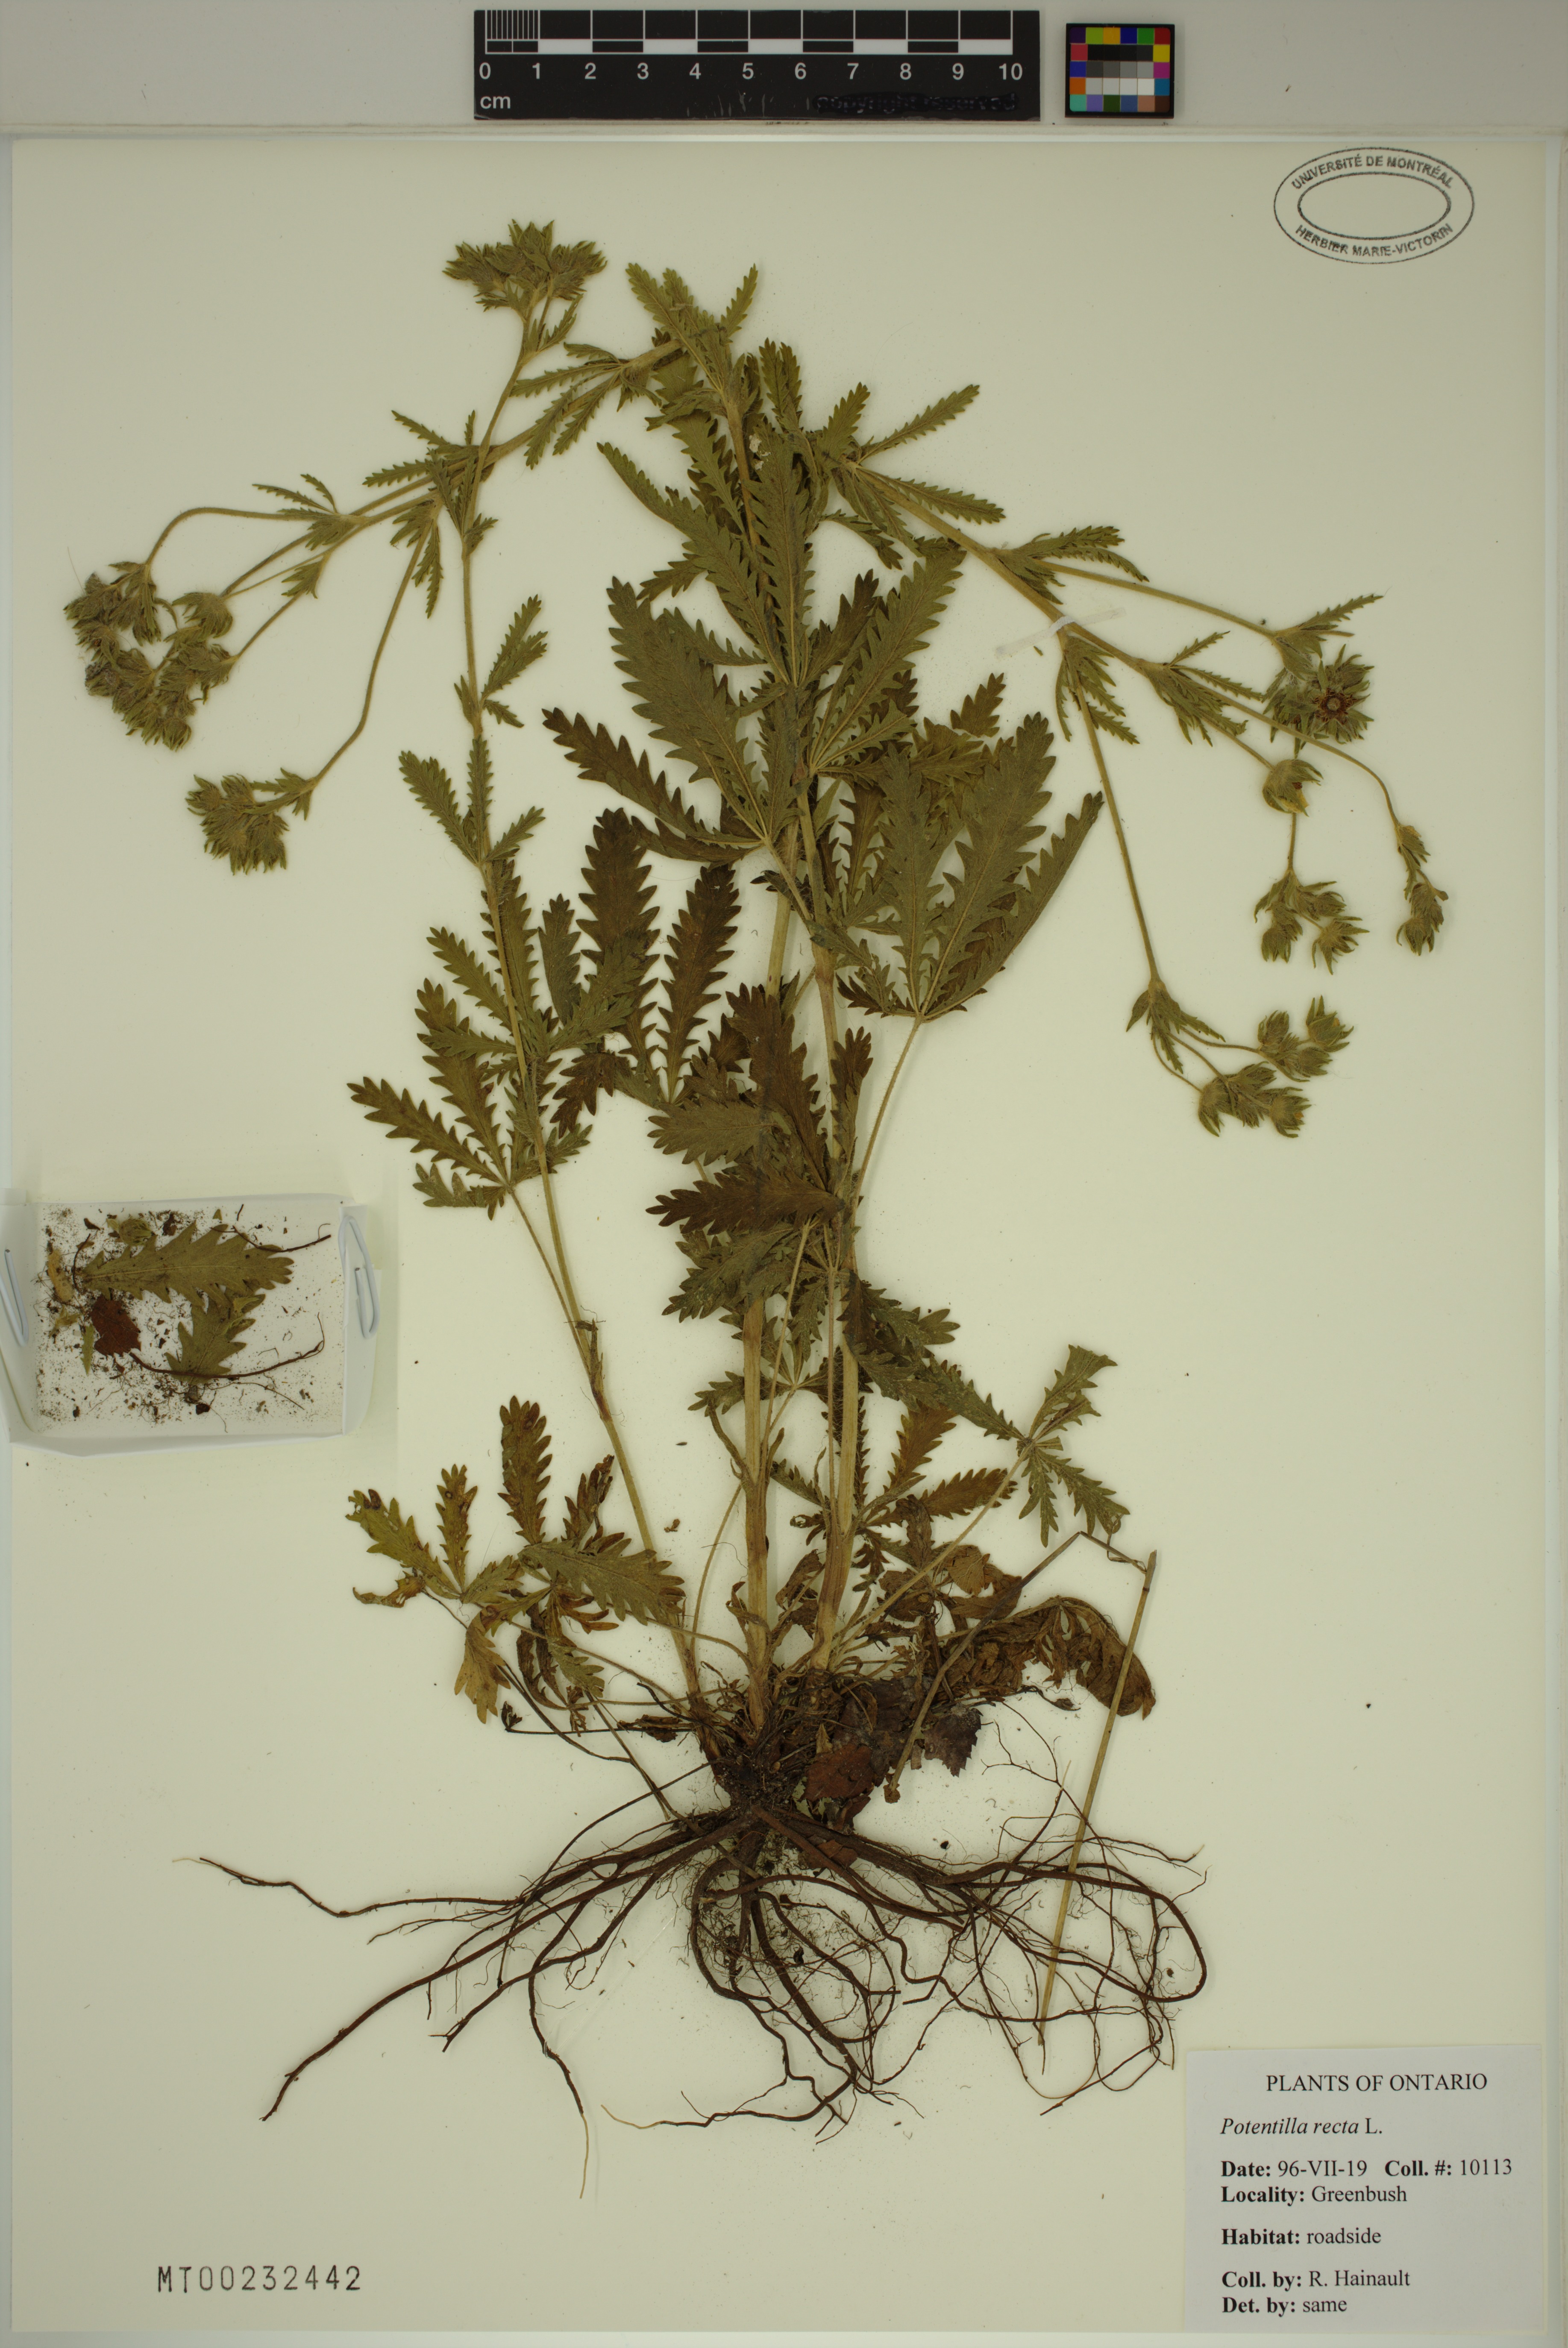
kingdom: Plantae
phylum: Tracheophyta
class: Magnoliopsida
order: Rosales
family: Rosaceae
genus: Potentilla
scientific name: Potentilla recta
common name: Sulphur cinquefoil
